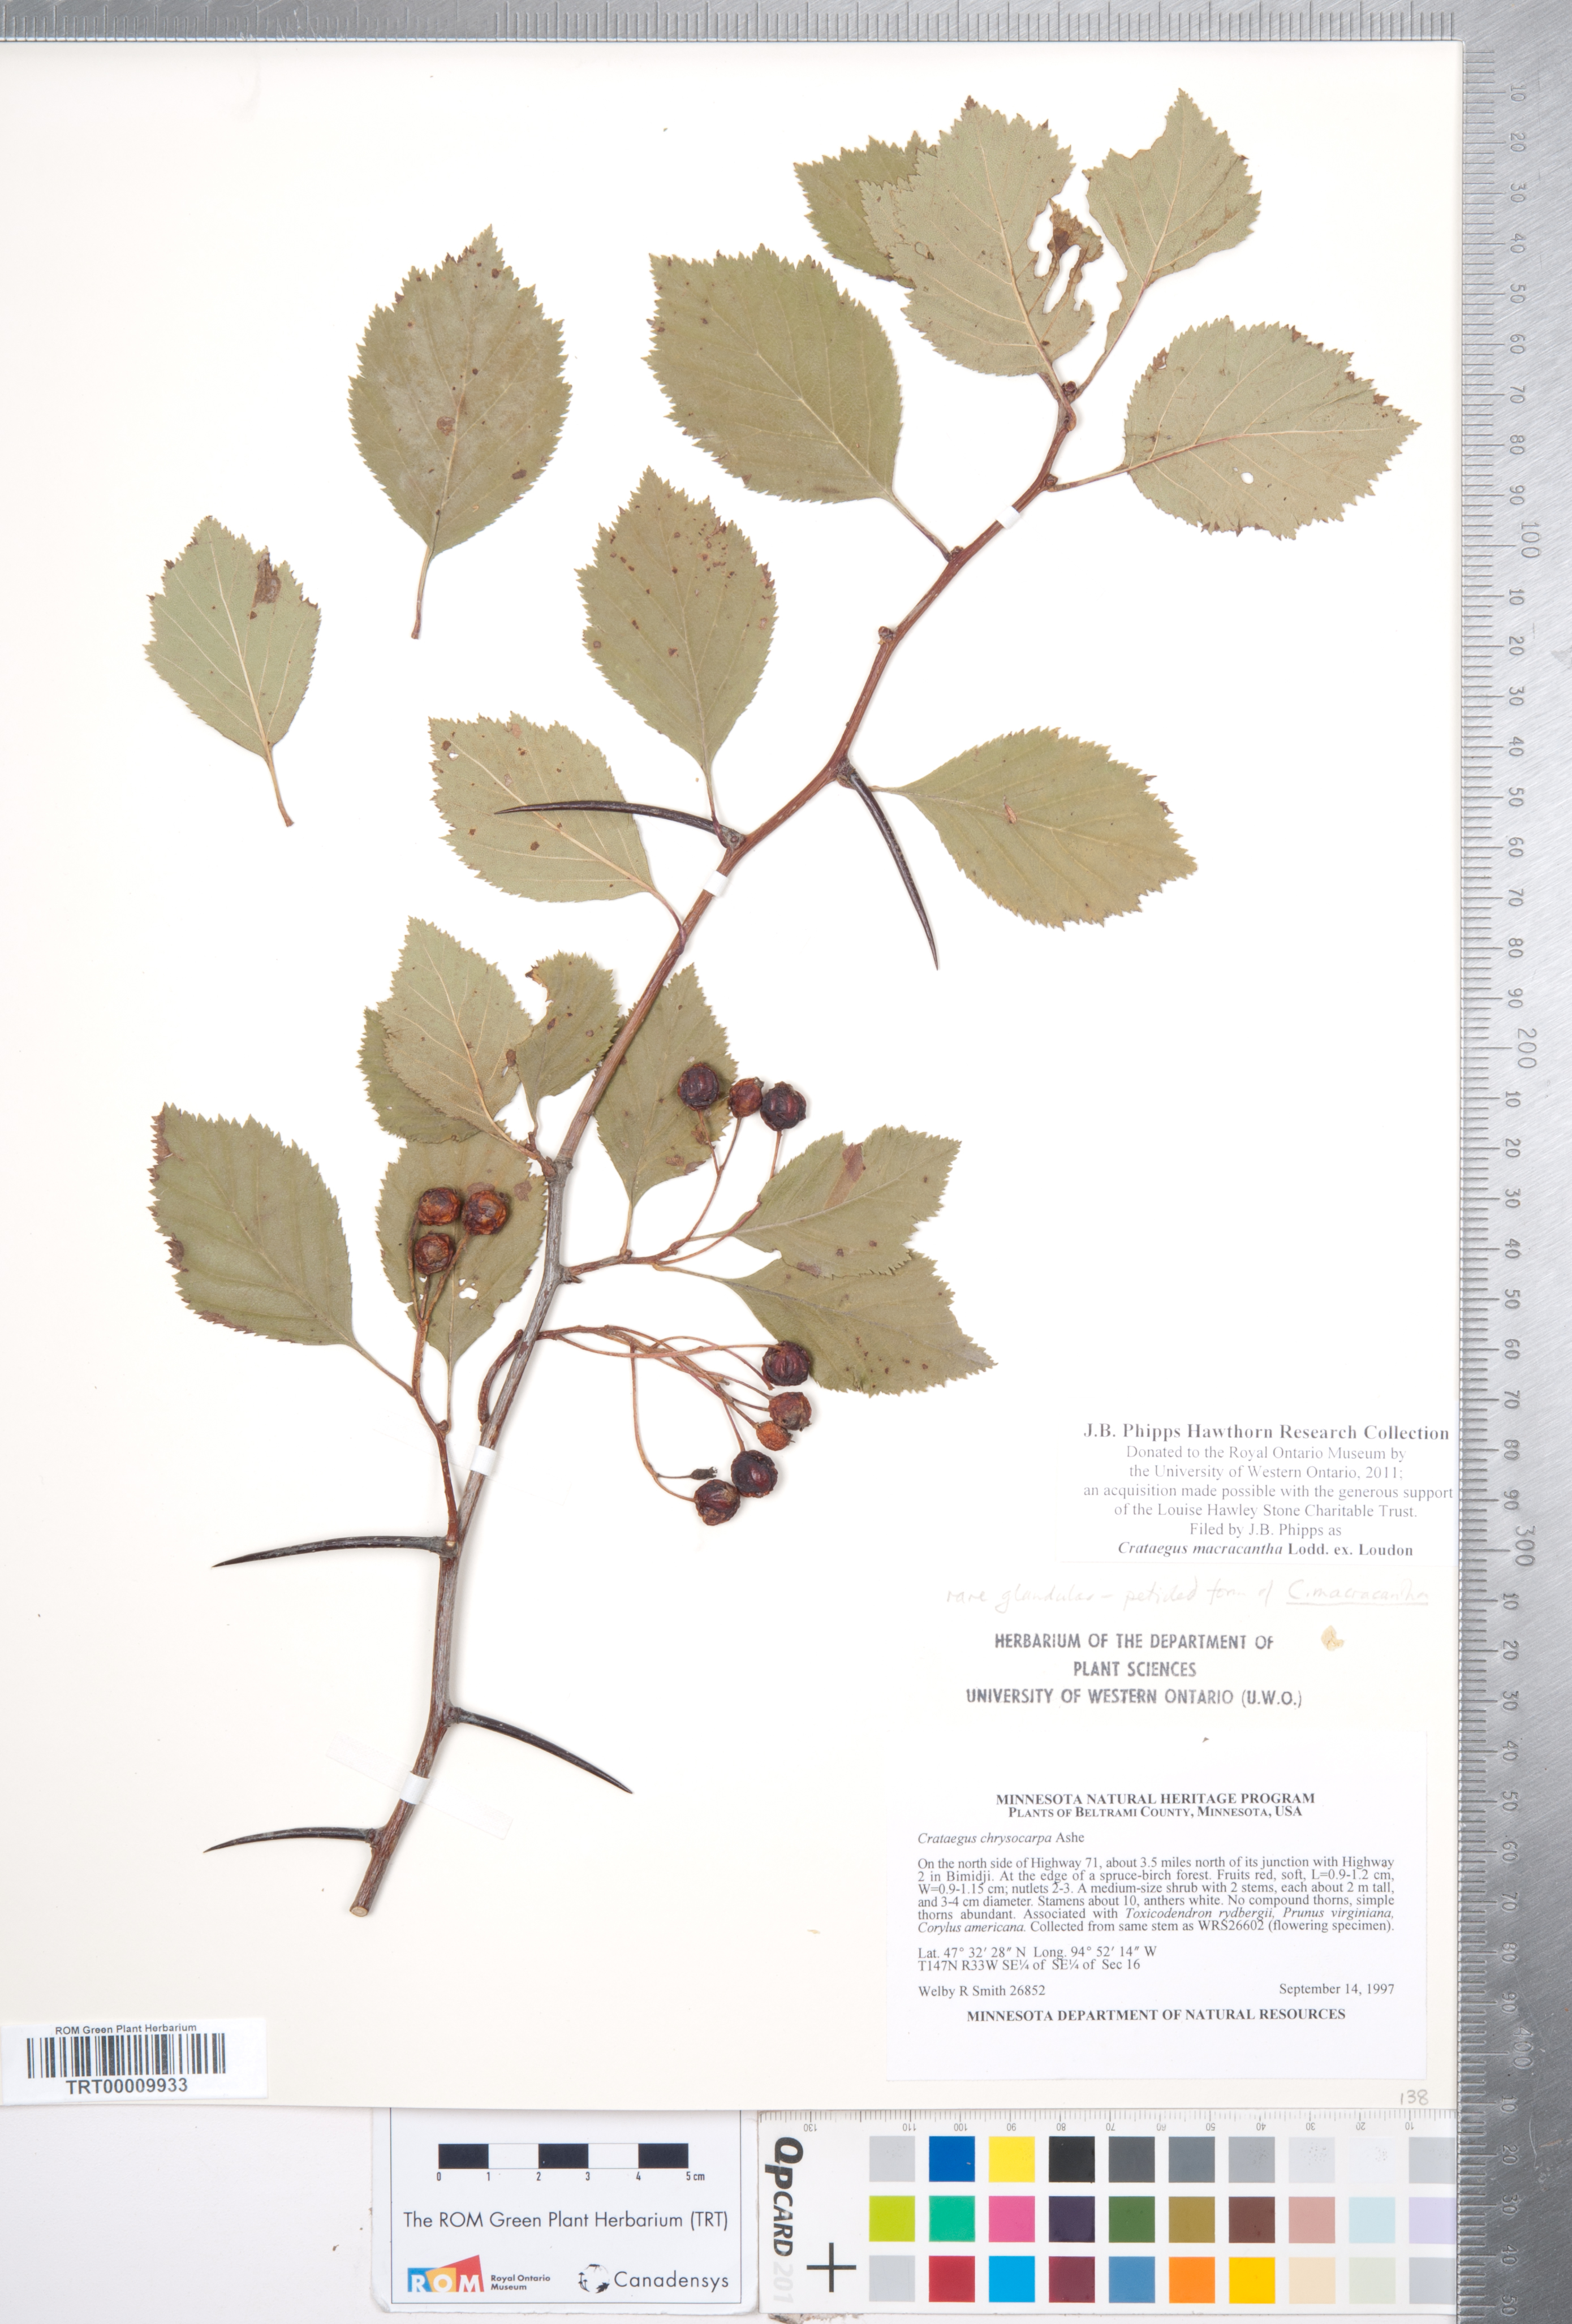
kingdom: Plantae
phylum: Tracheophyta
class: Magnoliopsida
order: Rosales
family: Rosaceae
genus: Crataegus
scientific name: Crataegus macracantha
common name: Large-thorn hawthorn
